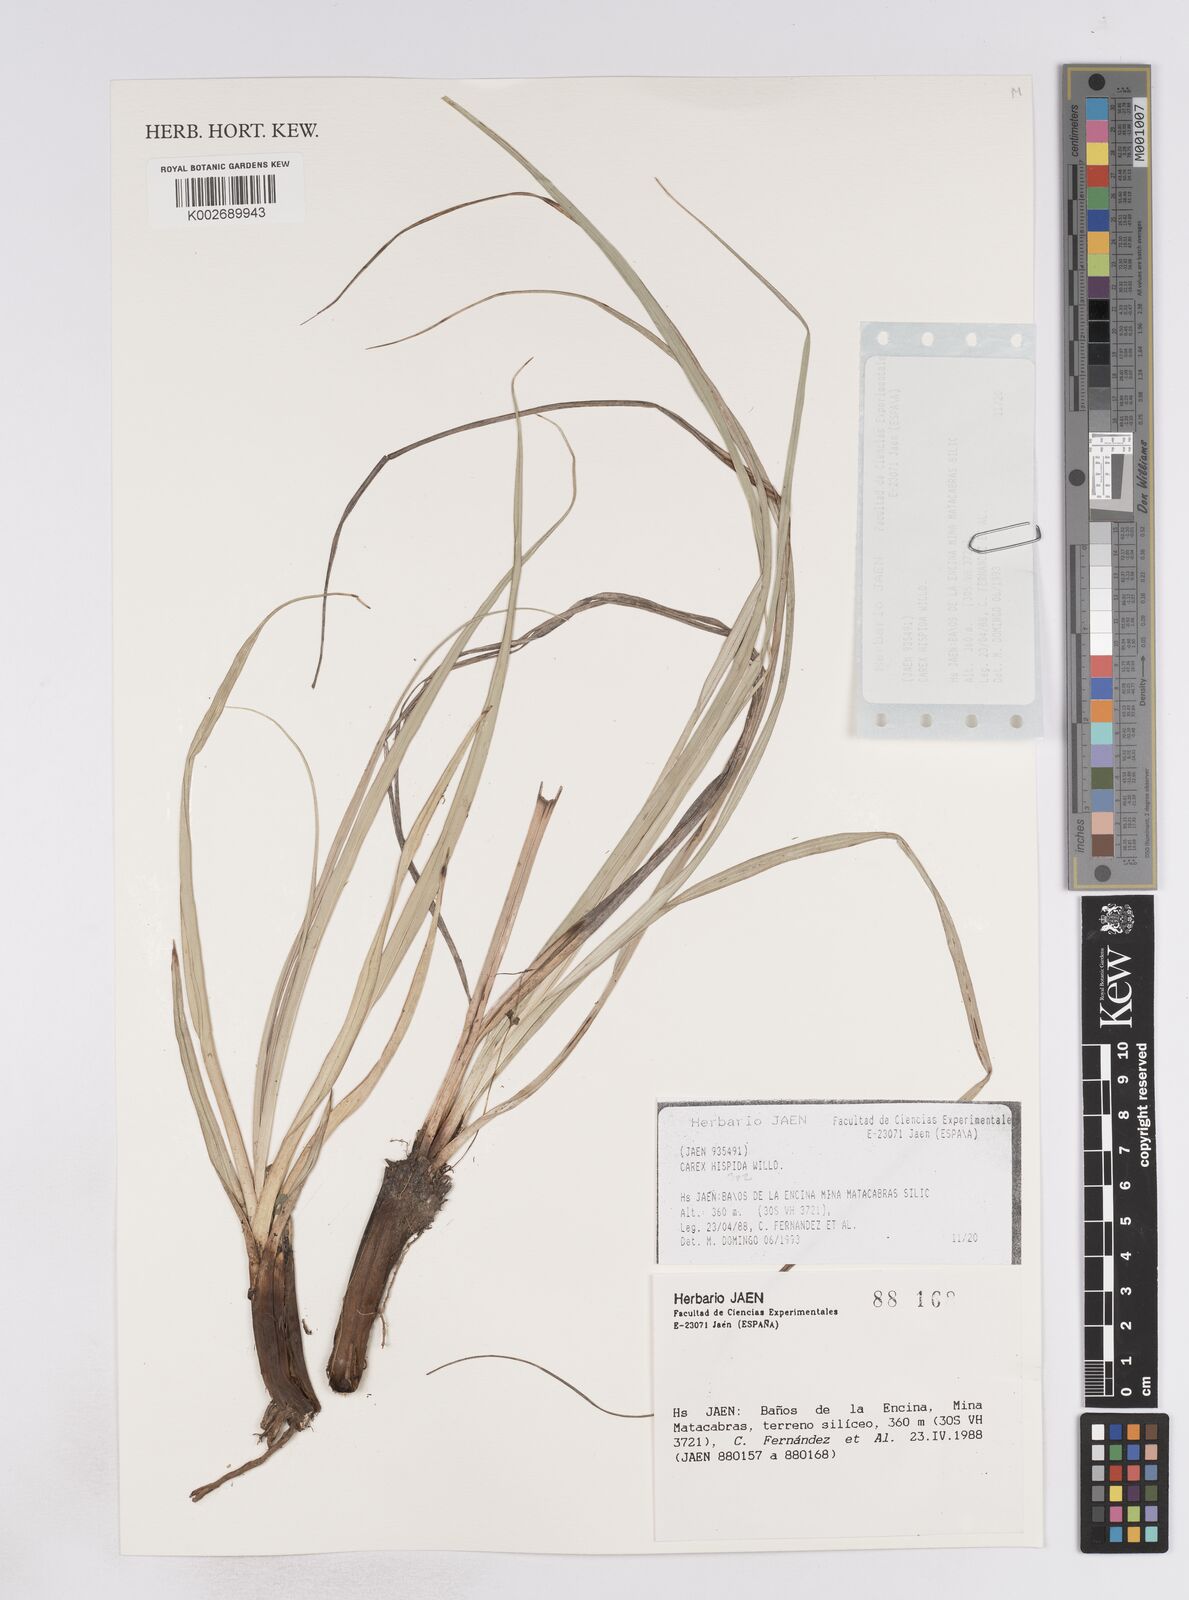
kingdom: Plantae
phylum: Tracheophyta
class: Liliopsida
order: Poales
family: Cyperaceae
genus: Carex
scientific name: Carex hispida
